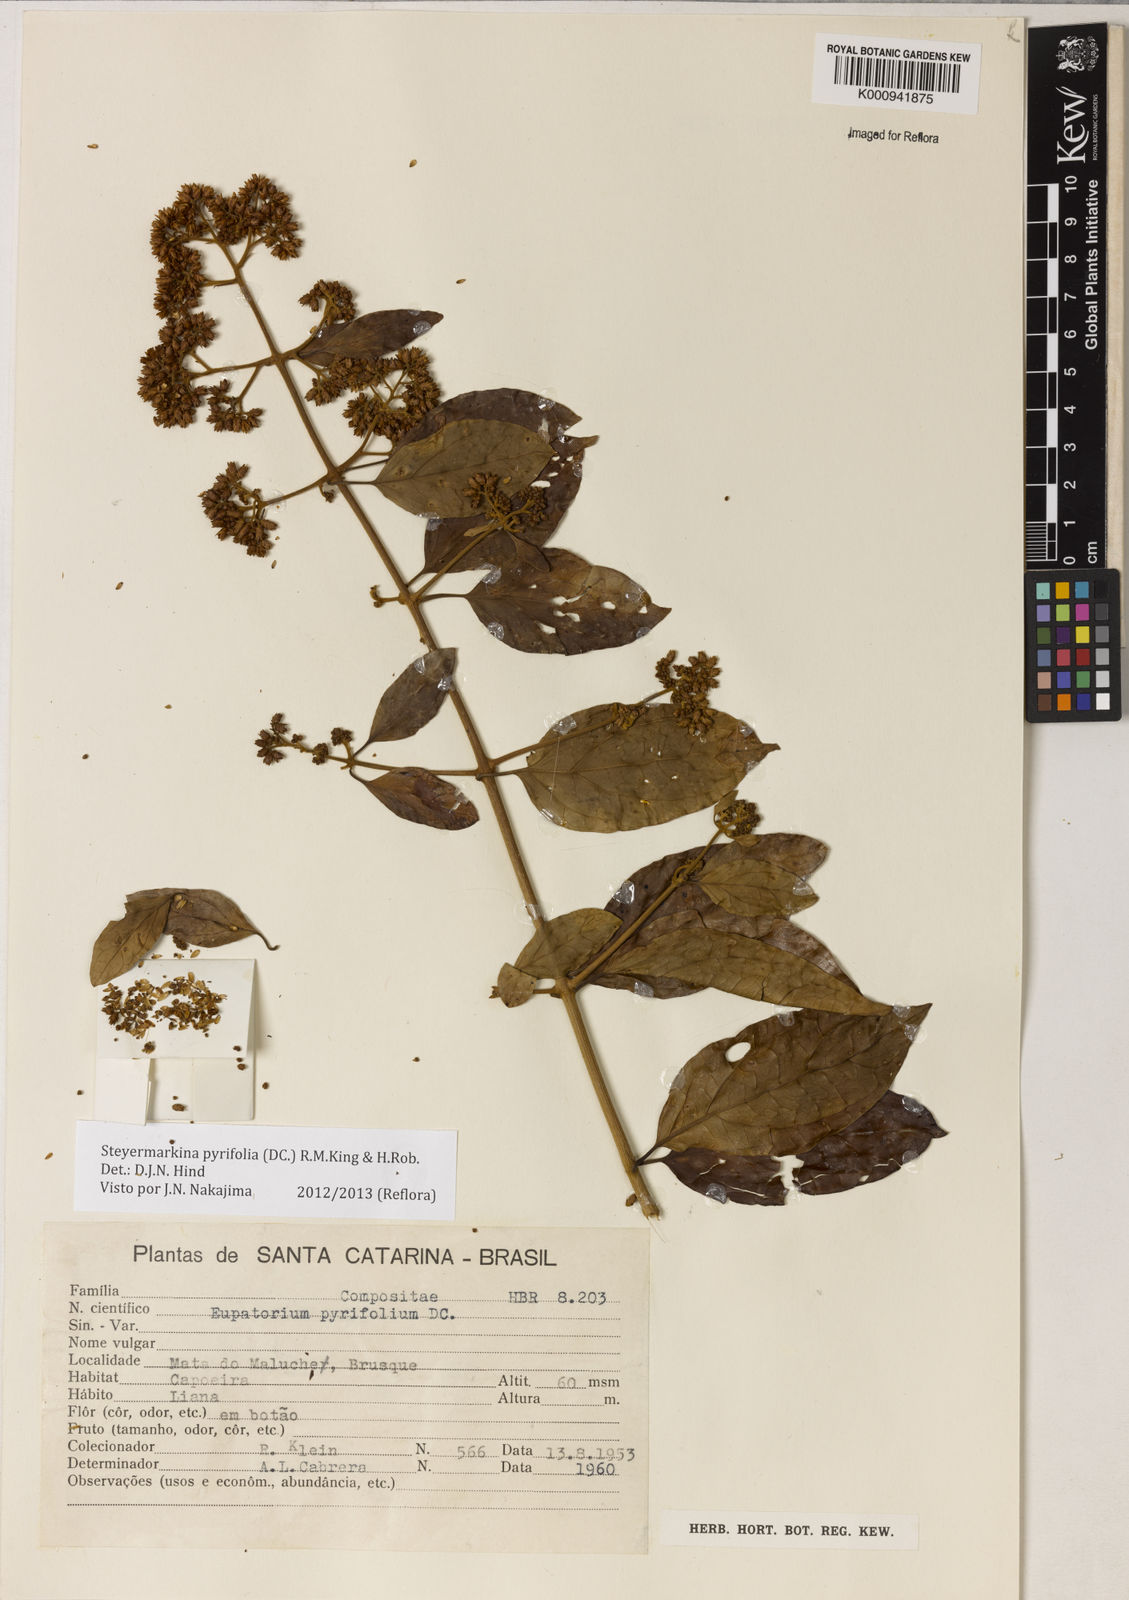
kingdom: Plantae
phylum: Tracheophyta
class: Magnoliopsida
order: Asterales
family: Asteraceae
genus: Steyermarkina
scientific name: Steyermarkina pyrifolia
